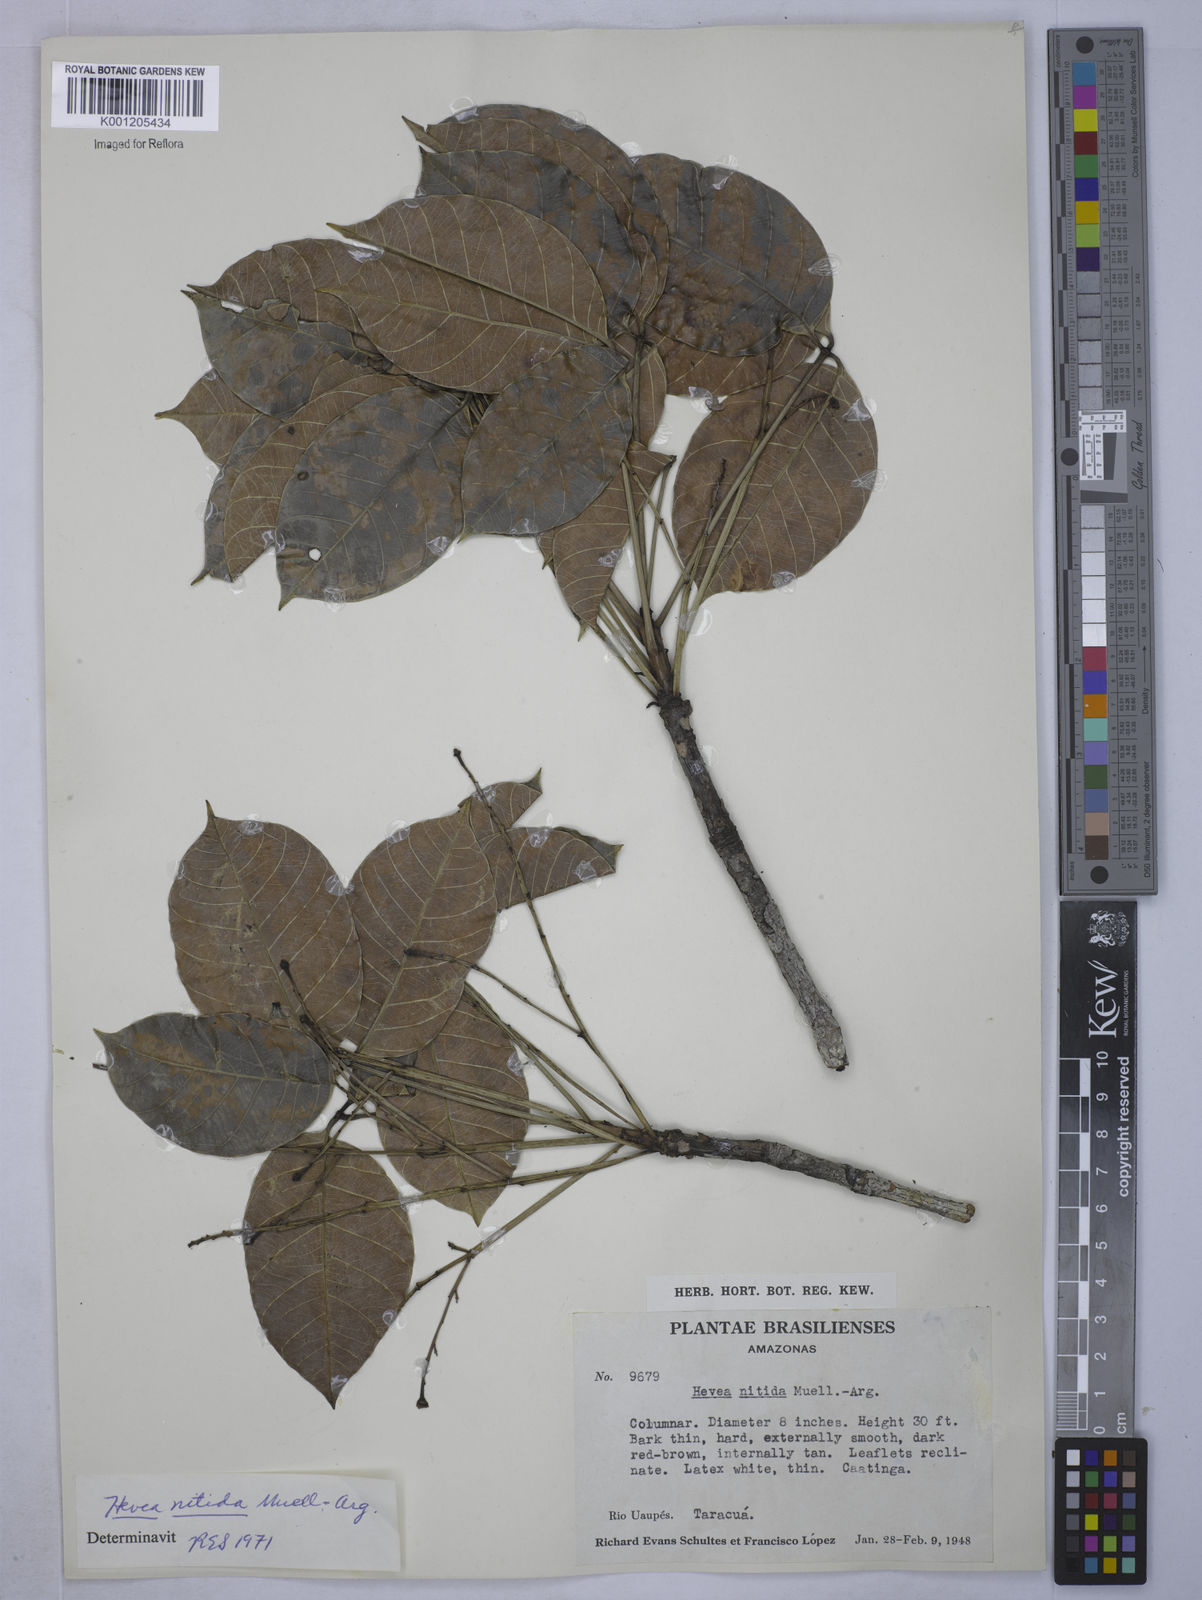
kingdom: Plantae
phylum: Tracheophyta
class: Magnoliopsida
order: Malpighiales
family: Euphorbiaceae
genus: Hevea
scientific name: Hevea
